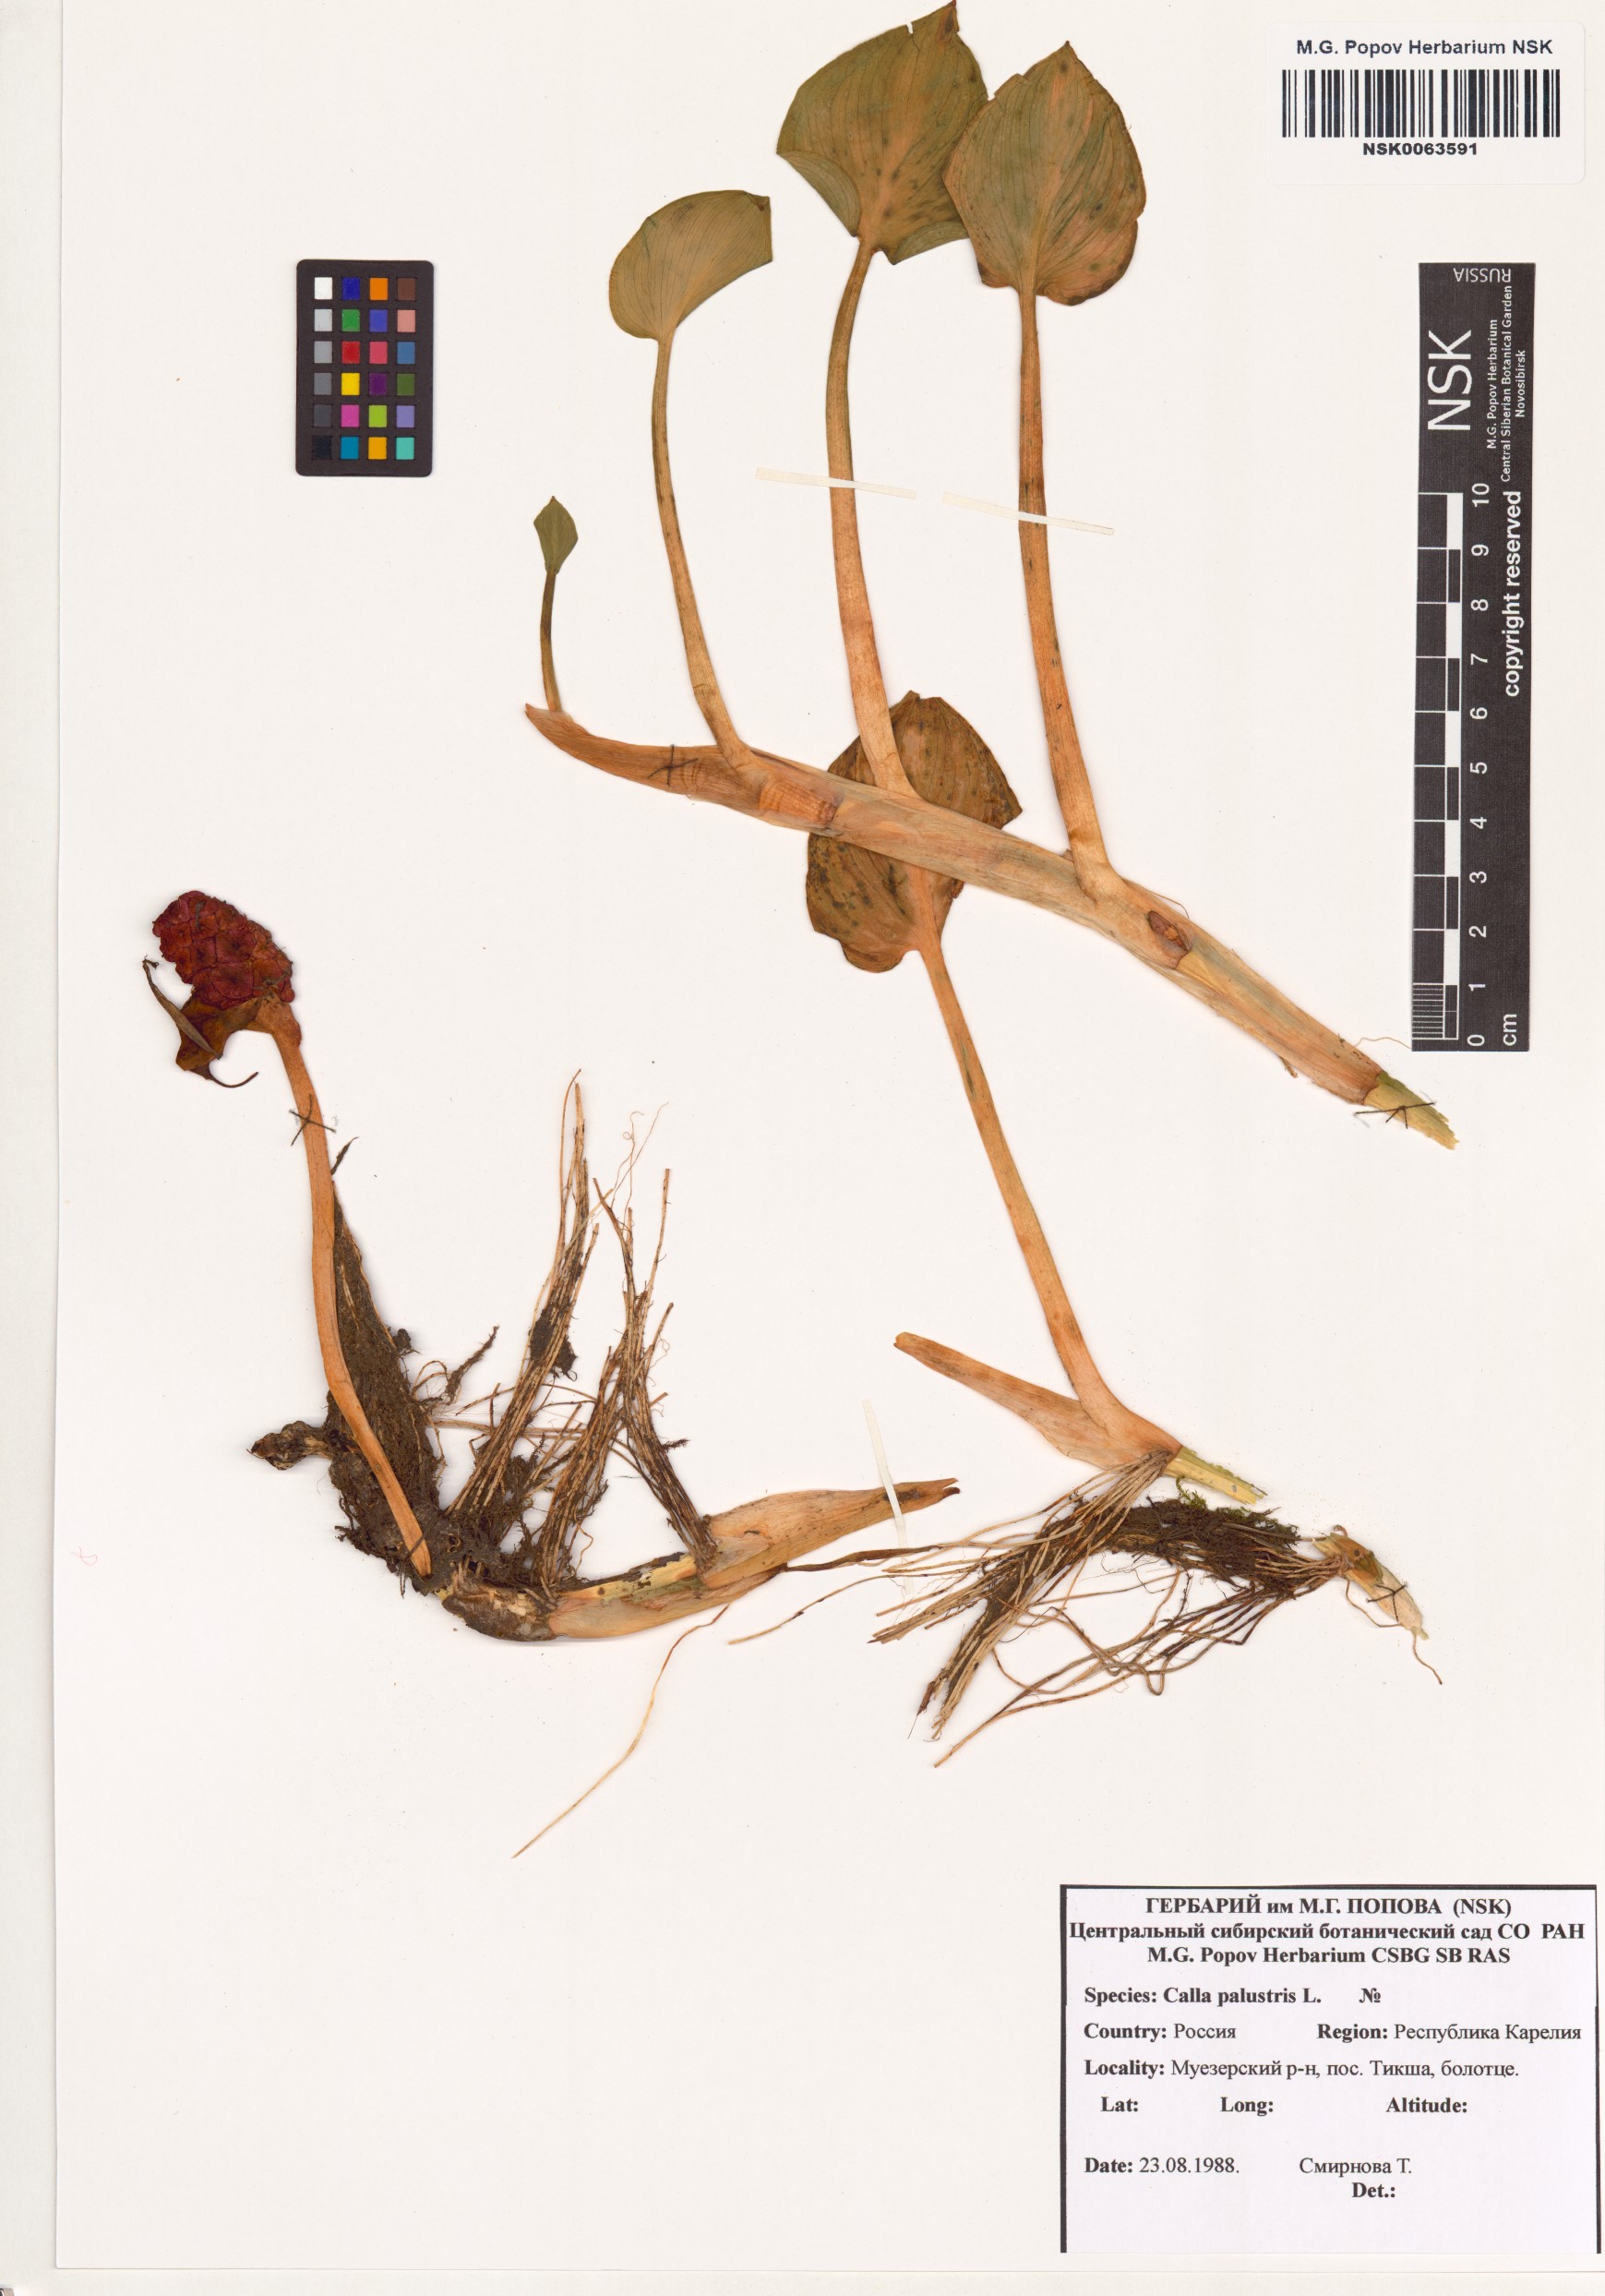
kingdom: Plantae
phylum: Tracheophyta
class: Liliopsida
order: Alismatales
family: Araceae
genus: Calla
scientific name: Calla palustris
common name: Bog arum
